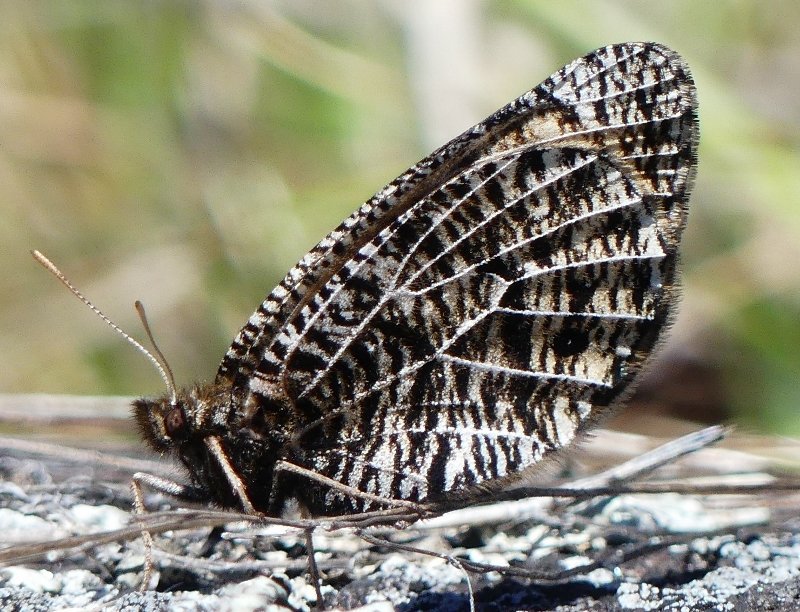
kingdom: Animalia
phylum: Arthropoda
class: Insecta
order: Lepidoptera
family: Nymphalidae
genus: Oeneis
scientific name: Oeneis chryxus
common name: Chryxus Arctic
